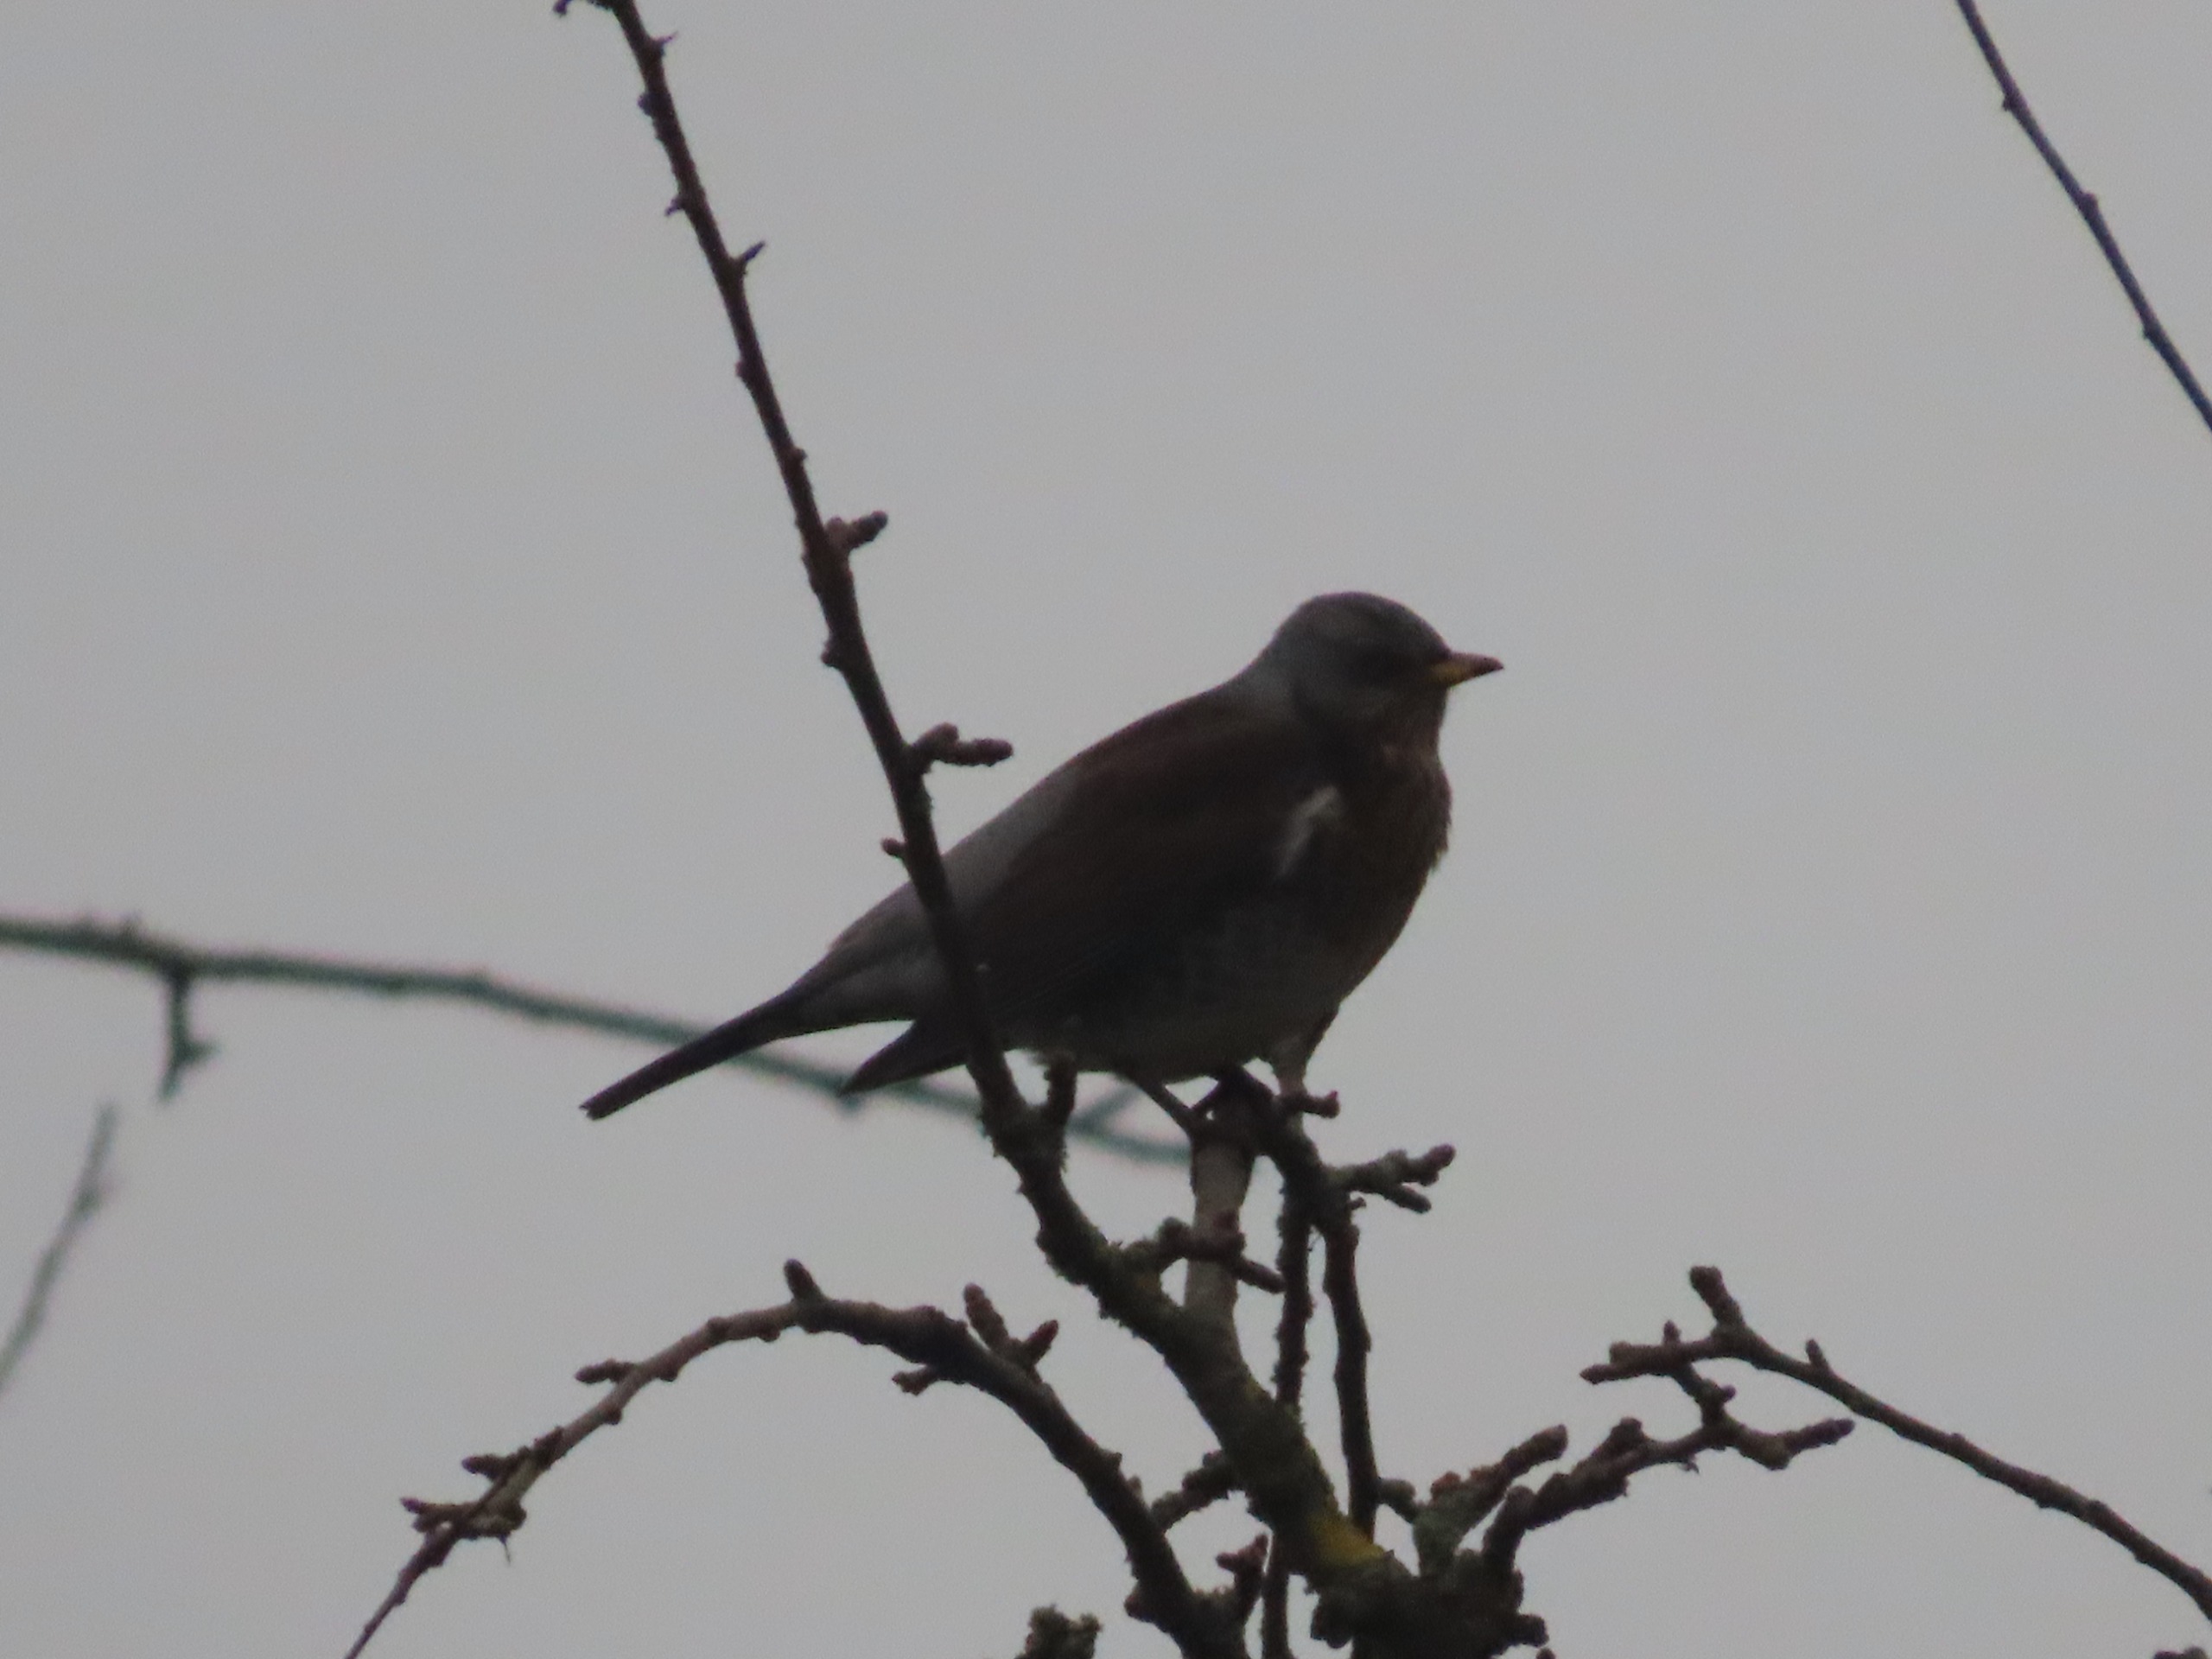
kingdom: Animalia
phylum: Chordata
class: Aves
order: Passeriformes
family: Turdidae
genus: Turdus
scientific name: Turdus pilaris
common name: Sjagger
